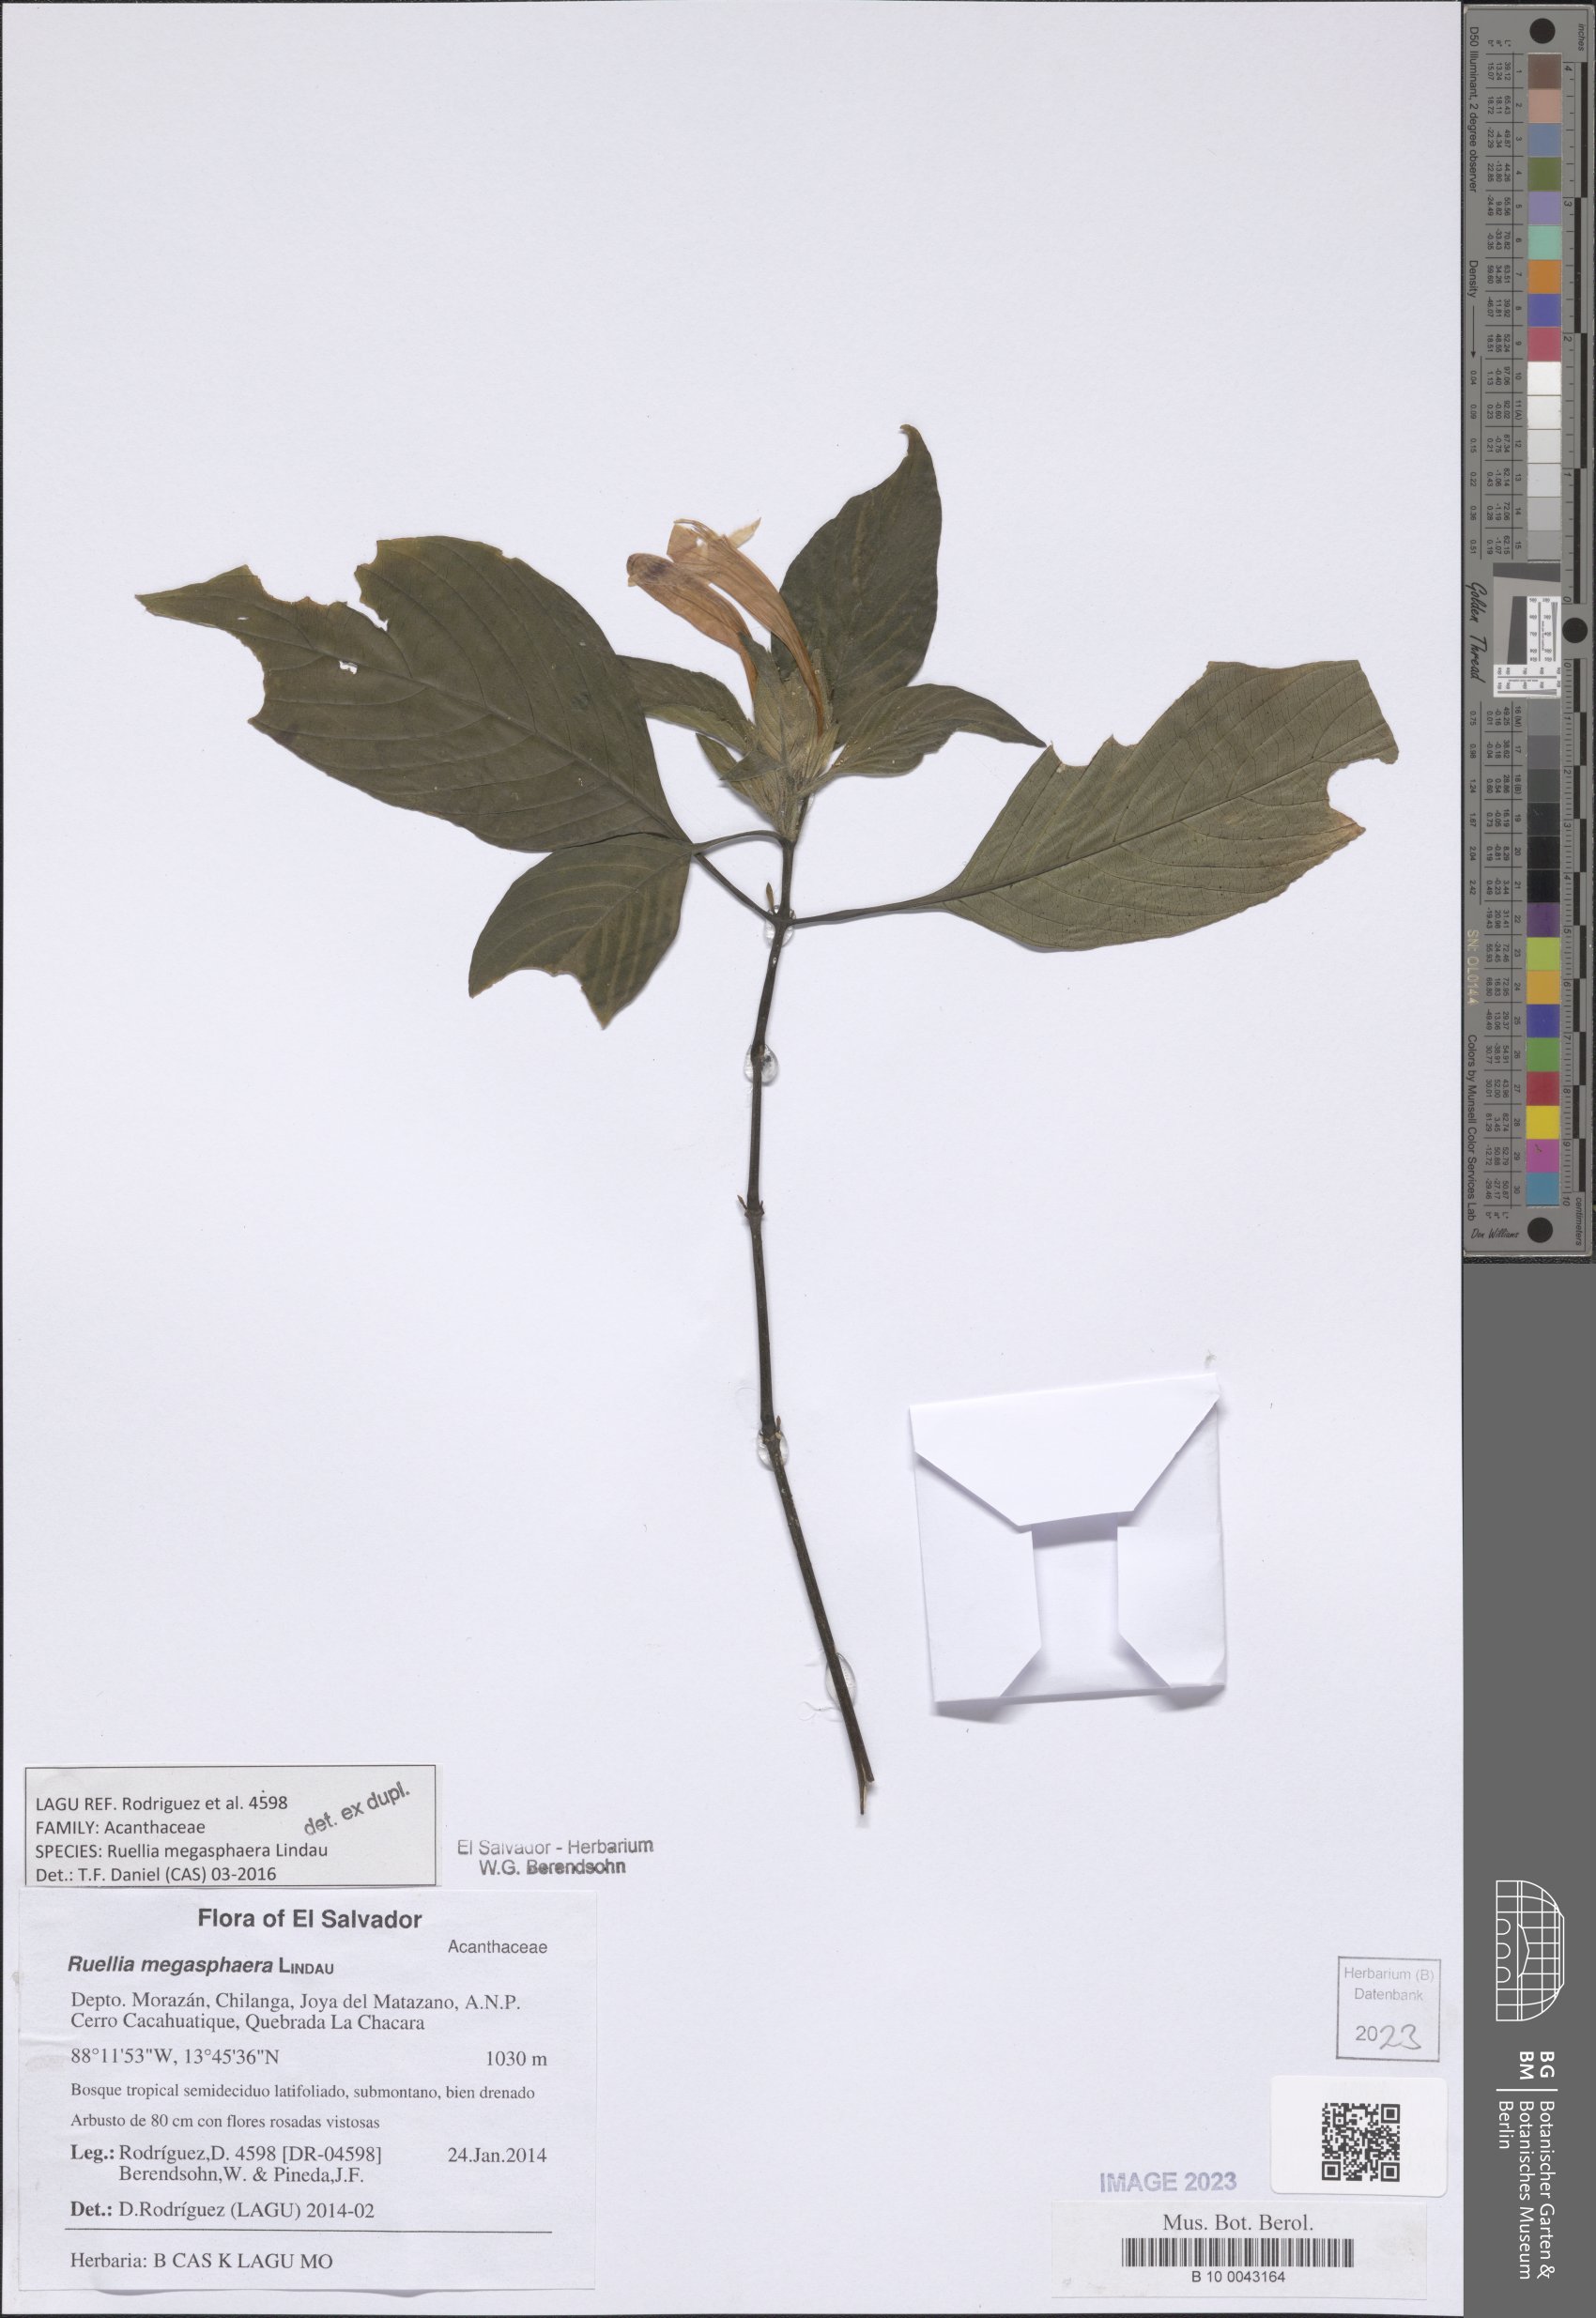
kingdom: Plantae
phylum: Tracheophyta
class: Magnoliopsida
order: Lamiales
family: Acanthaceae
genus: Ruellia
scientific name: Ruellia megasphaera
